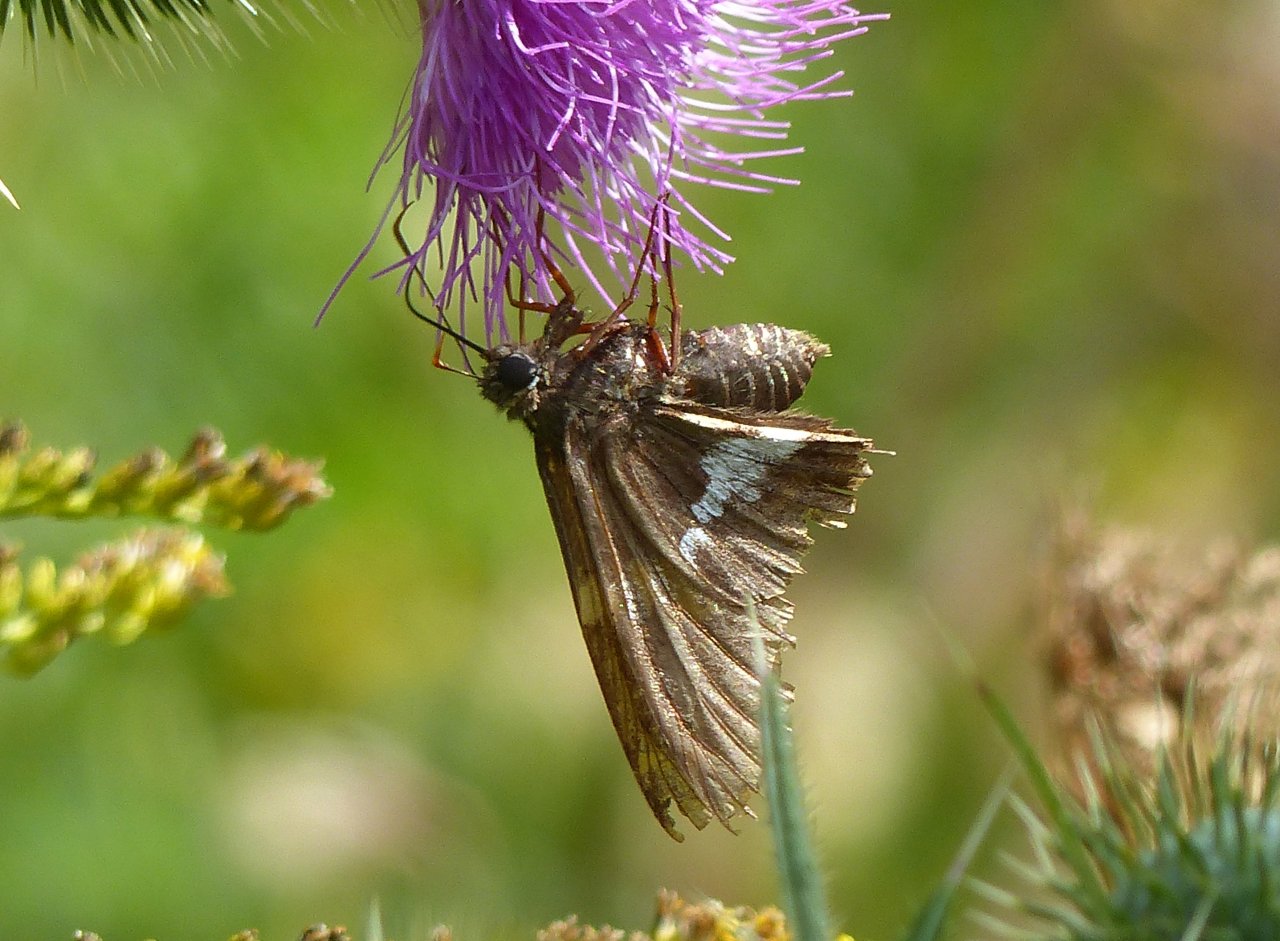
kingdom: Animalia
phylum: Arthropoda
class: Insecta
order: Lepidoptera
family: Hesperiidae
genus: Epargyreus
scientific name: Epargyreus clarus
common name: Silver-spotted Skipper
